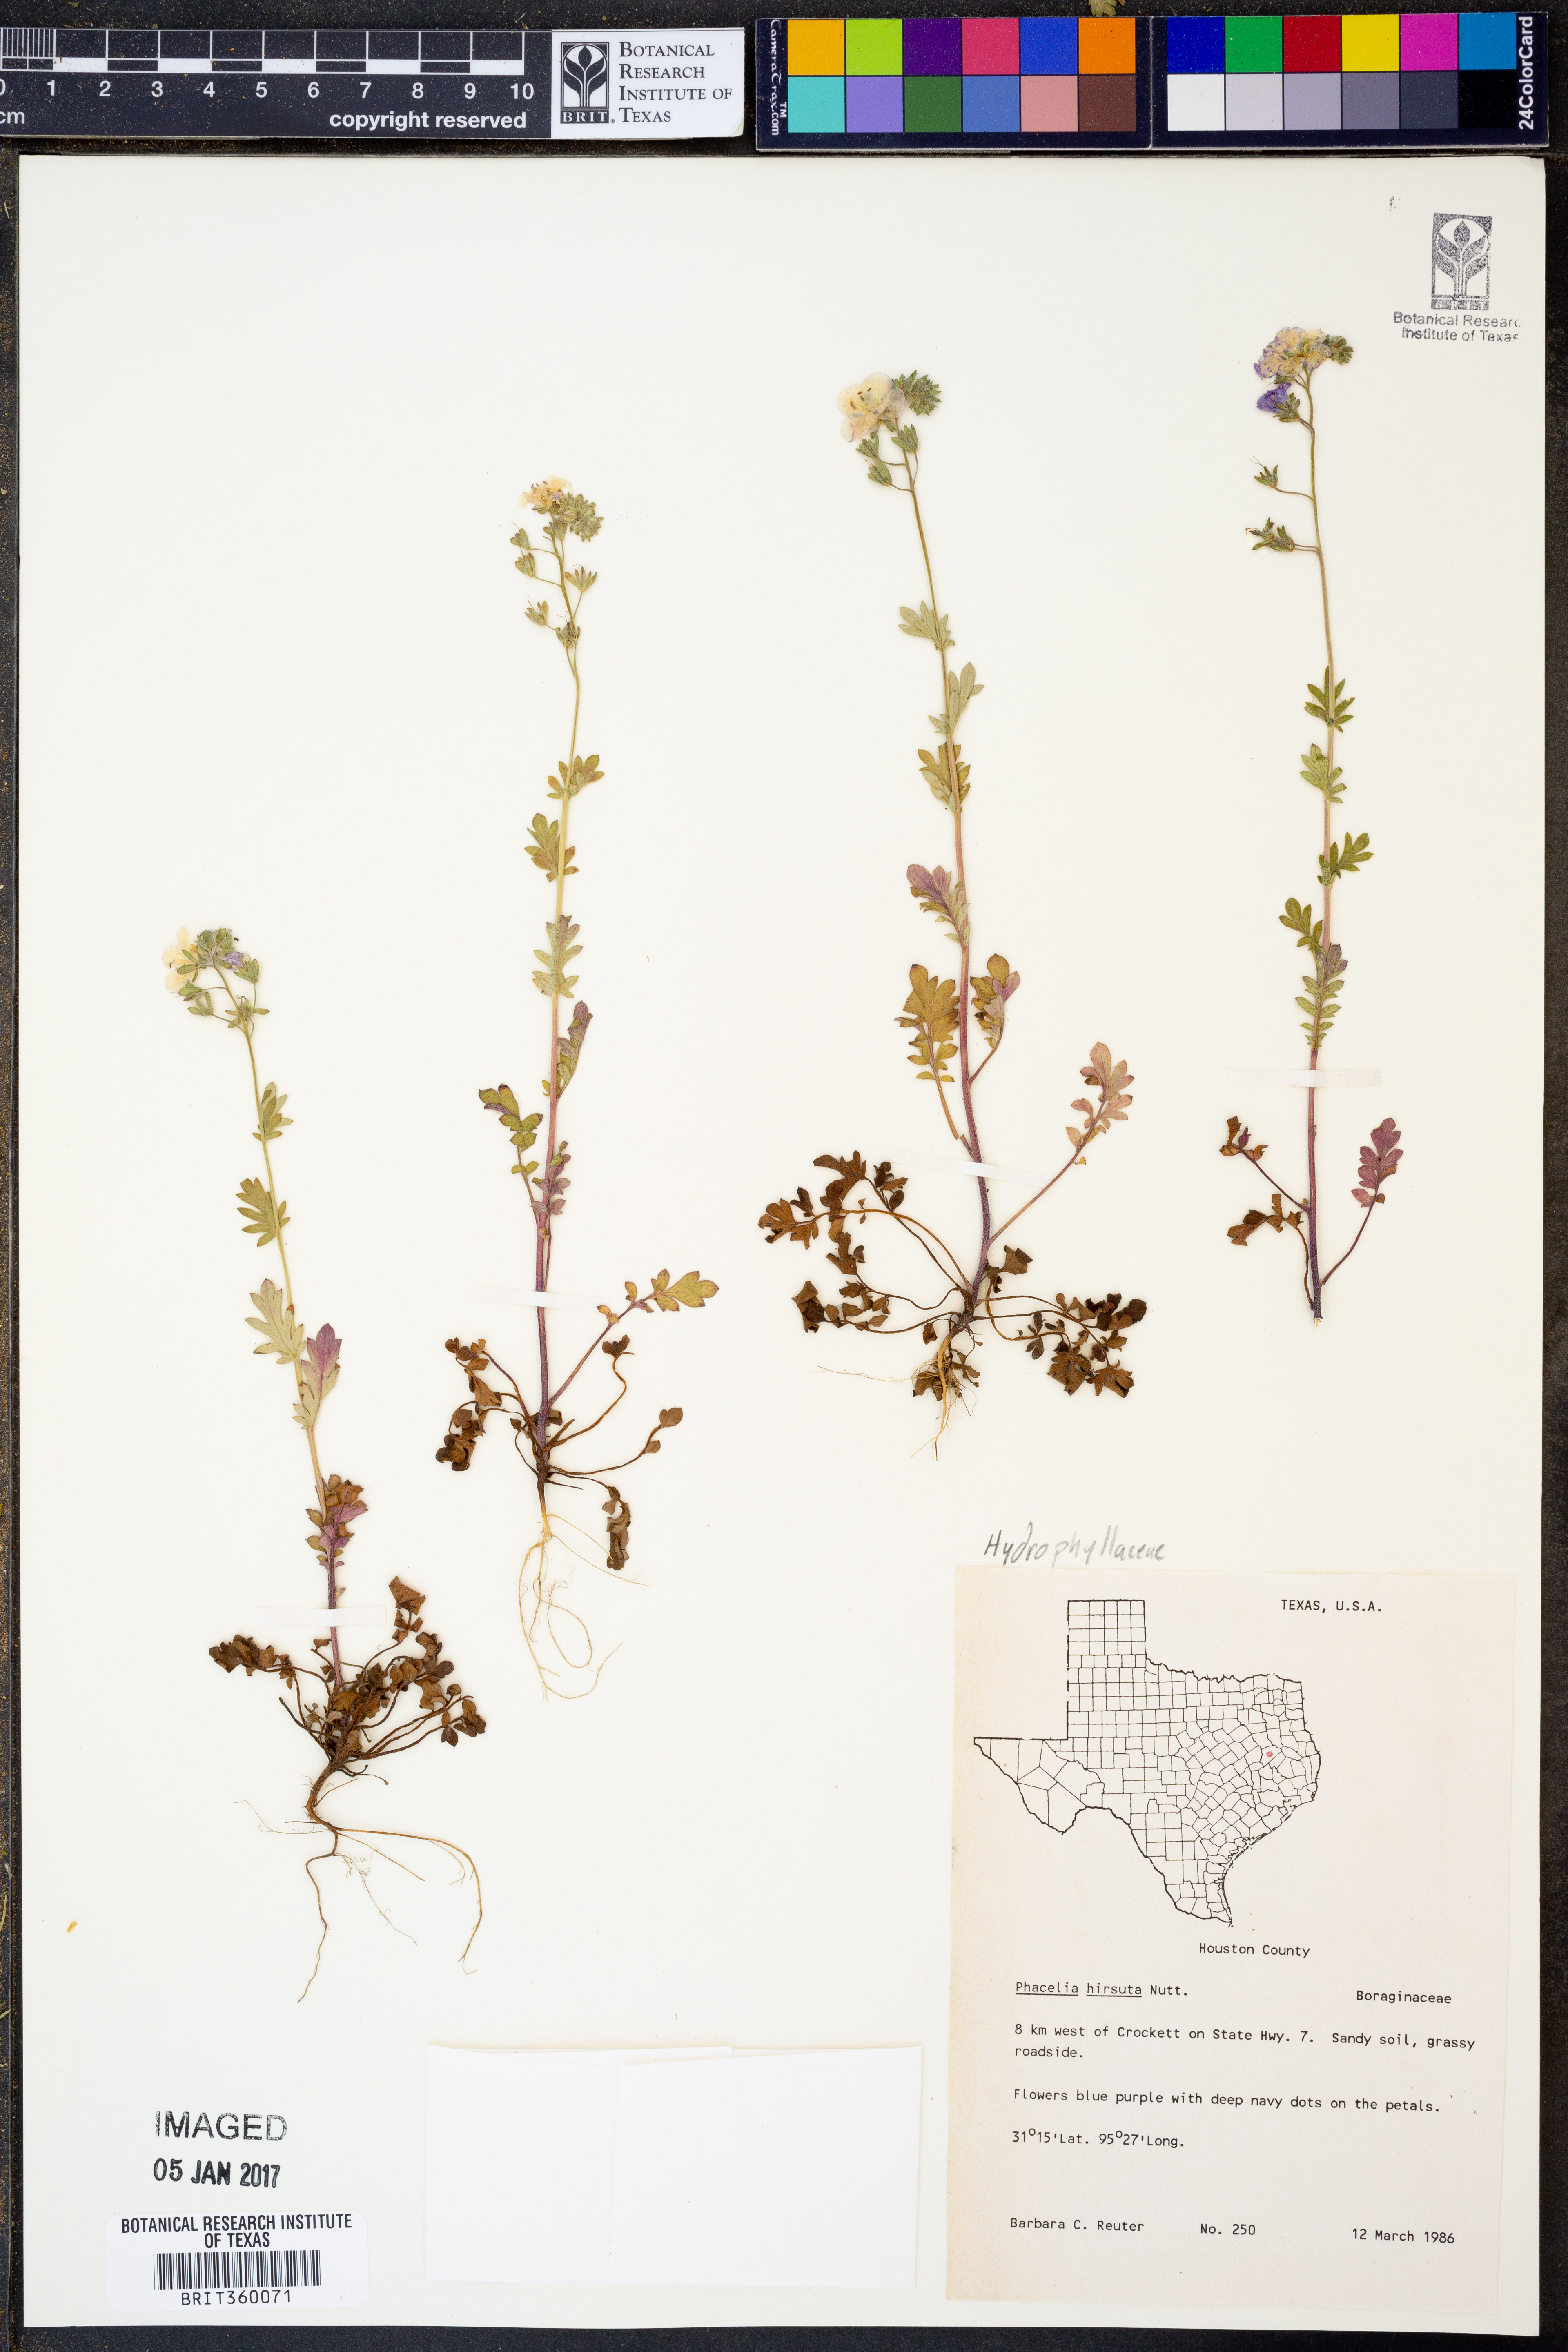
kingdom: Plantae
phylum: Tracheophyta
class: Magnoliopsida
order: Boraginales
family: Hydrophyllaceae
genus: Phacelia
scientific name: Phacelia hirsuta
